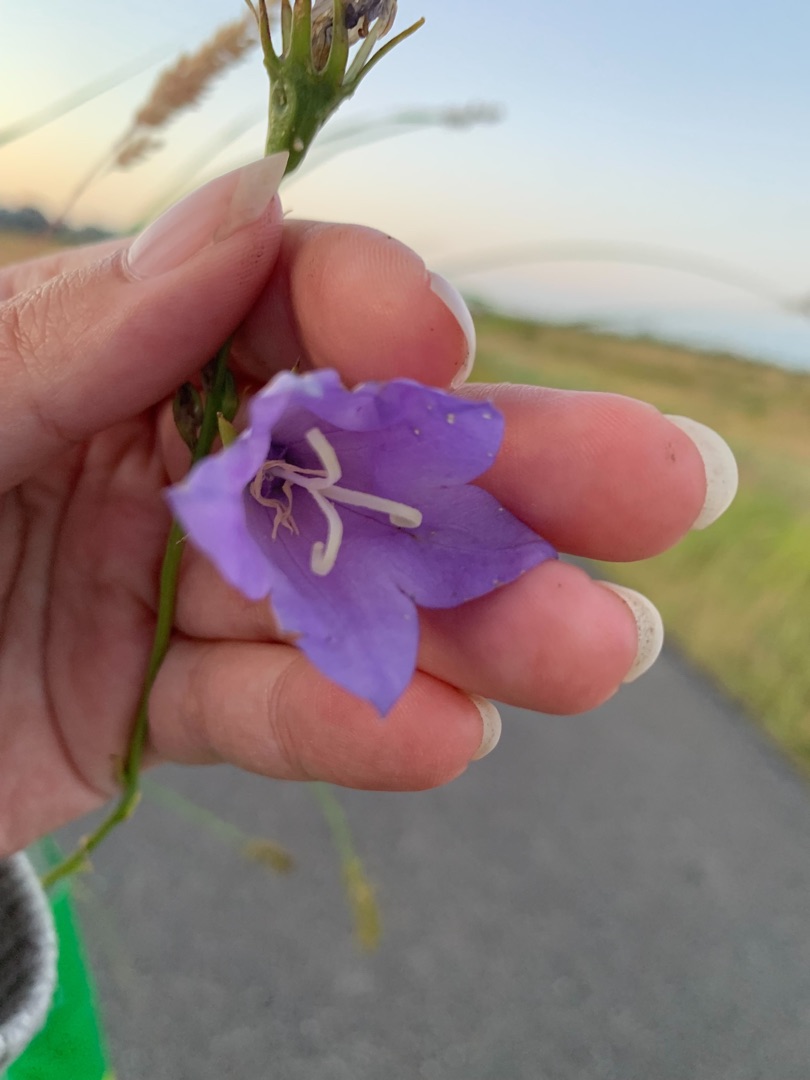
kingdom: Plantae
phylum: Tracheophyta
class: Magnoliopsida
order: Asterales
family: Campanulaceae
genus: Campanula
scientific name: Campanula persicifolia
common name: Smalbladet klokke
